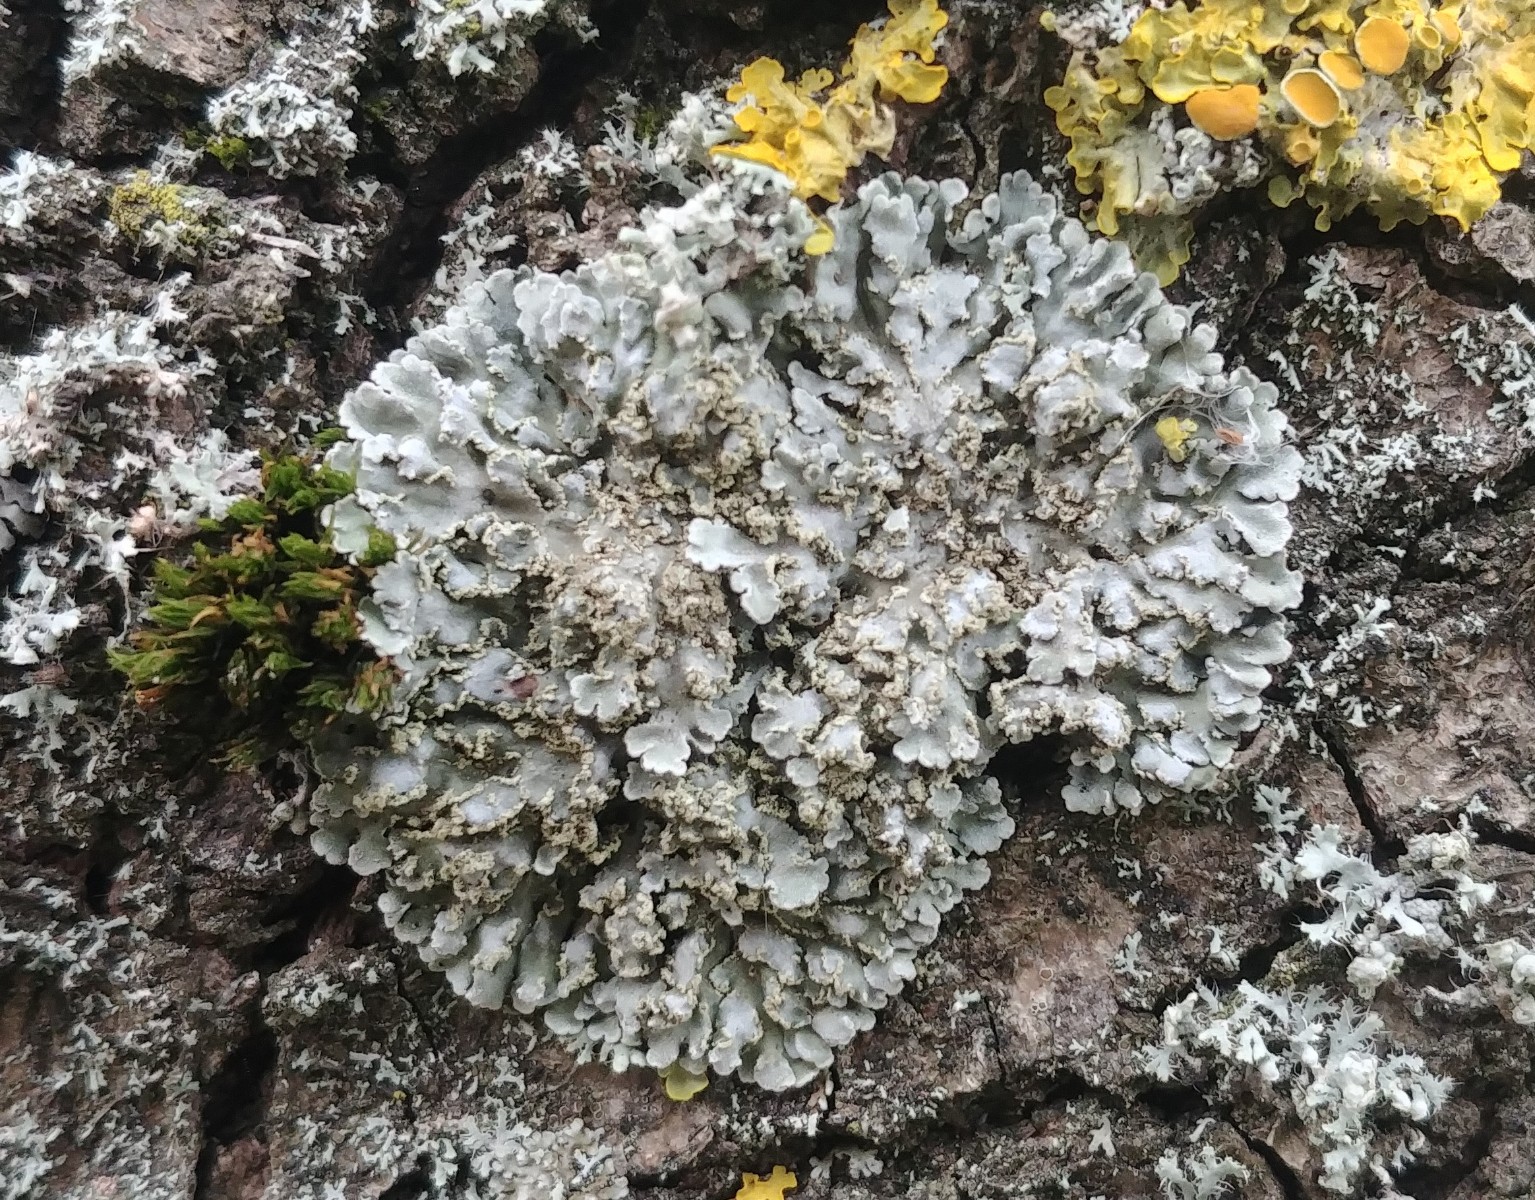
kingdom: Fungi
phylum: Ascomycota
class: Lecanoromycetes
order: Caliciales
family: Physciaceae
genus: Physconia
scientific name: Physconia
